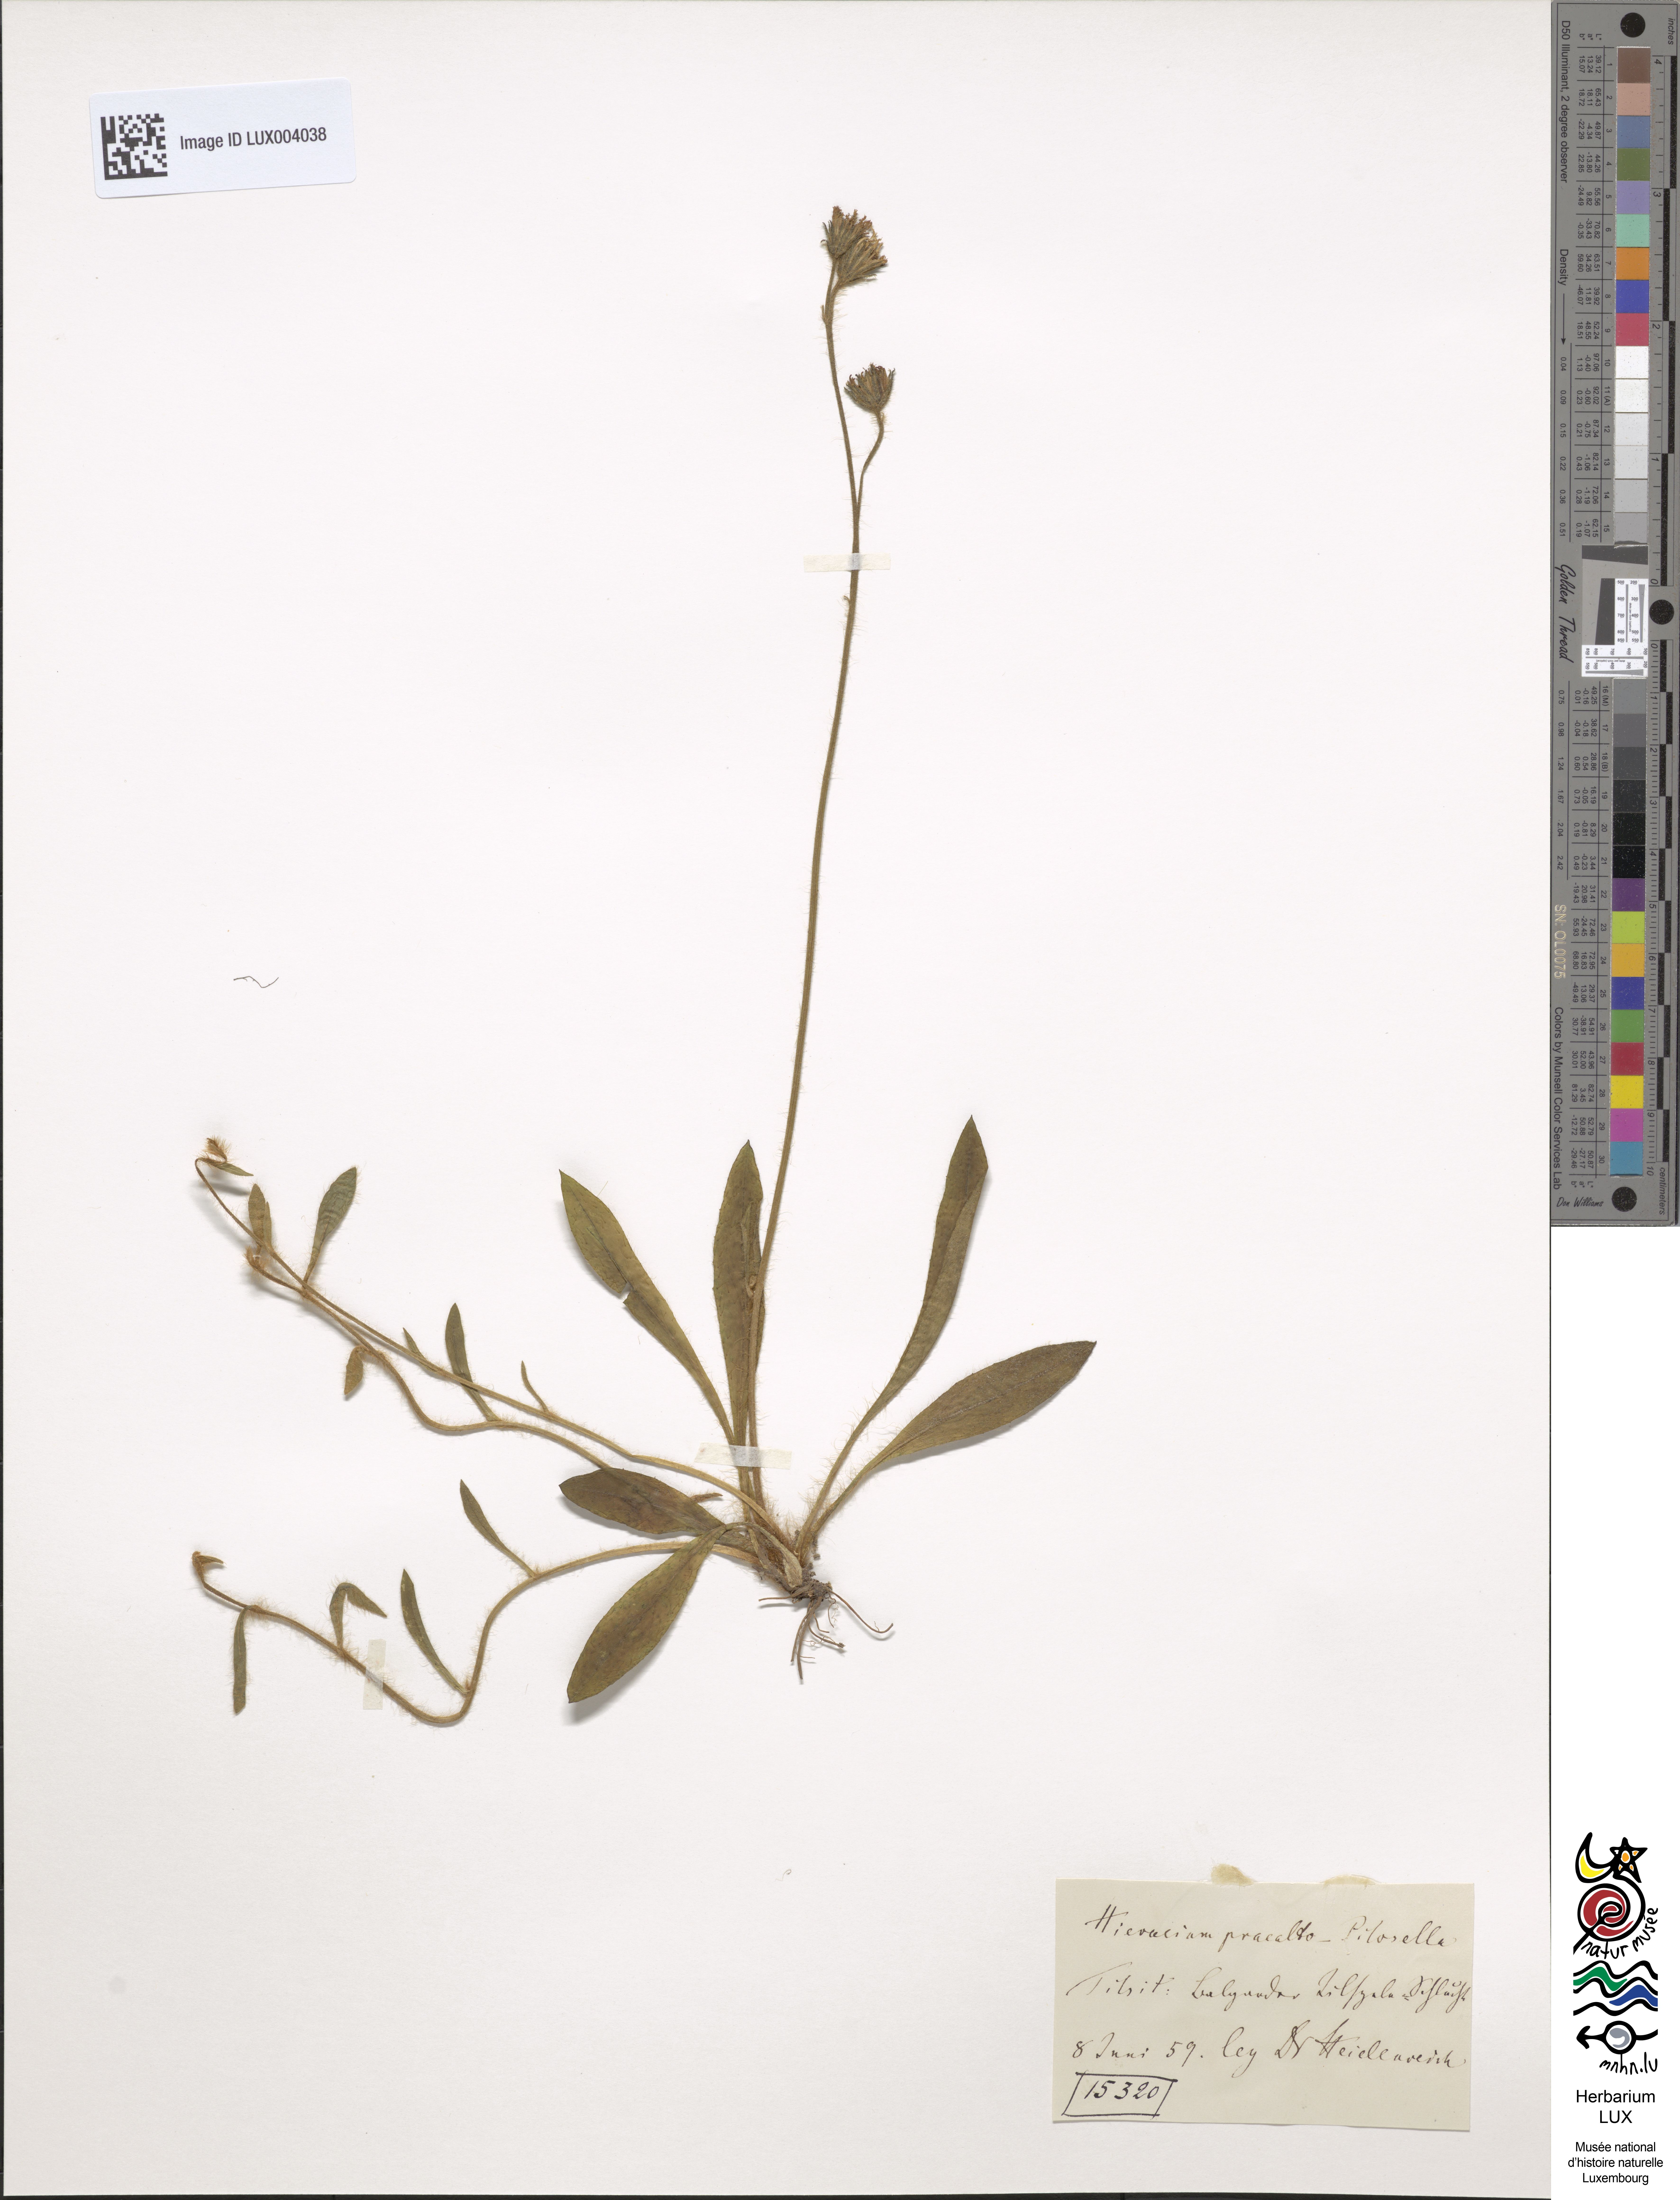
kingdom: Plantae
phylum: Tracheophyta
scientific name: Tracheophyta
